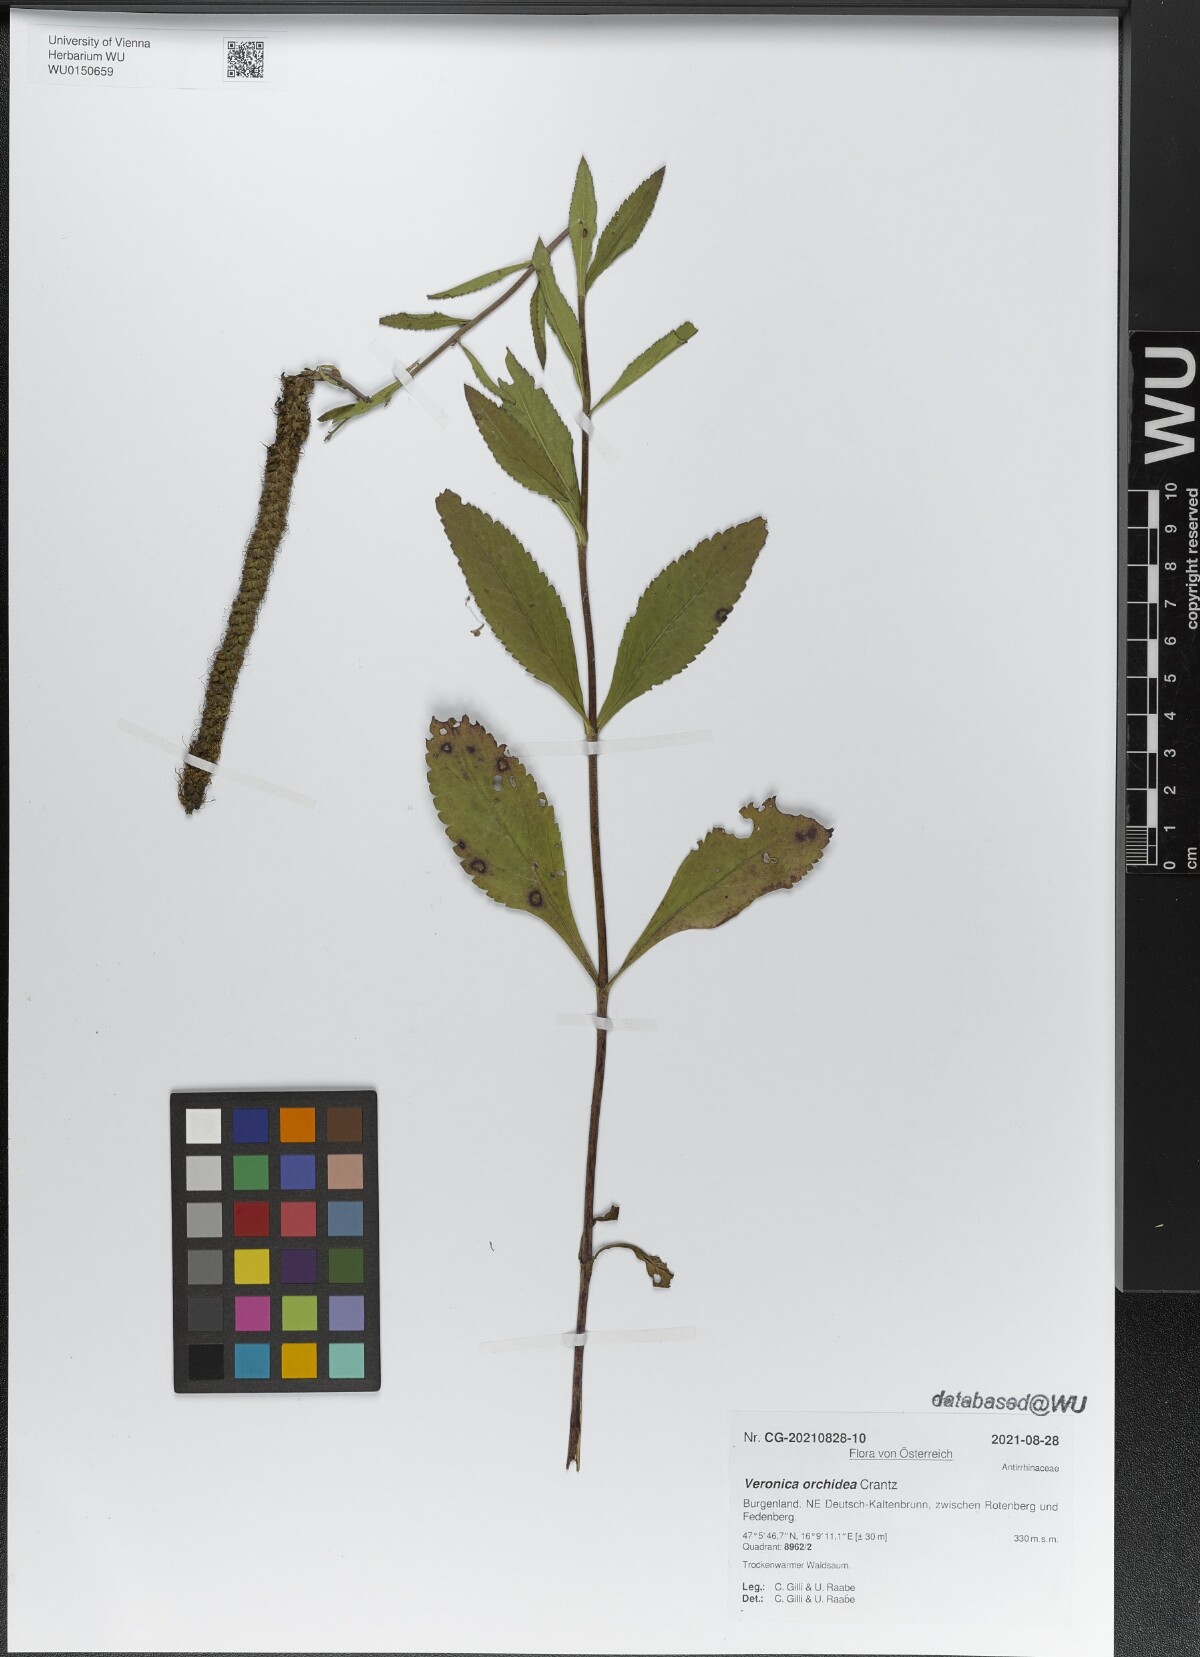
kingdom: Plantae
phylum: Tracheophyta
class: Magnoliopsida
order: Lamiales
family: Plantaginaceae
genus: Veronica
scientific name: Veronica orchidea
